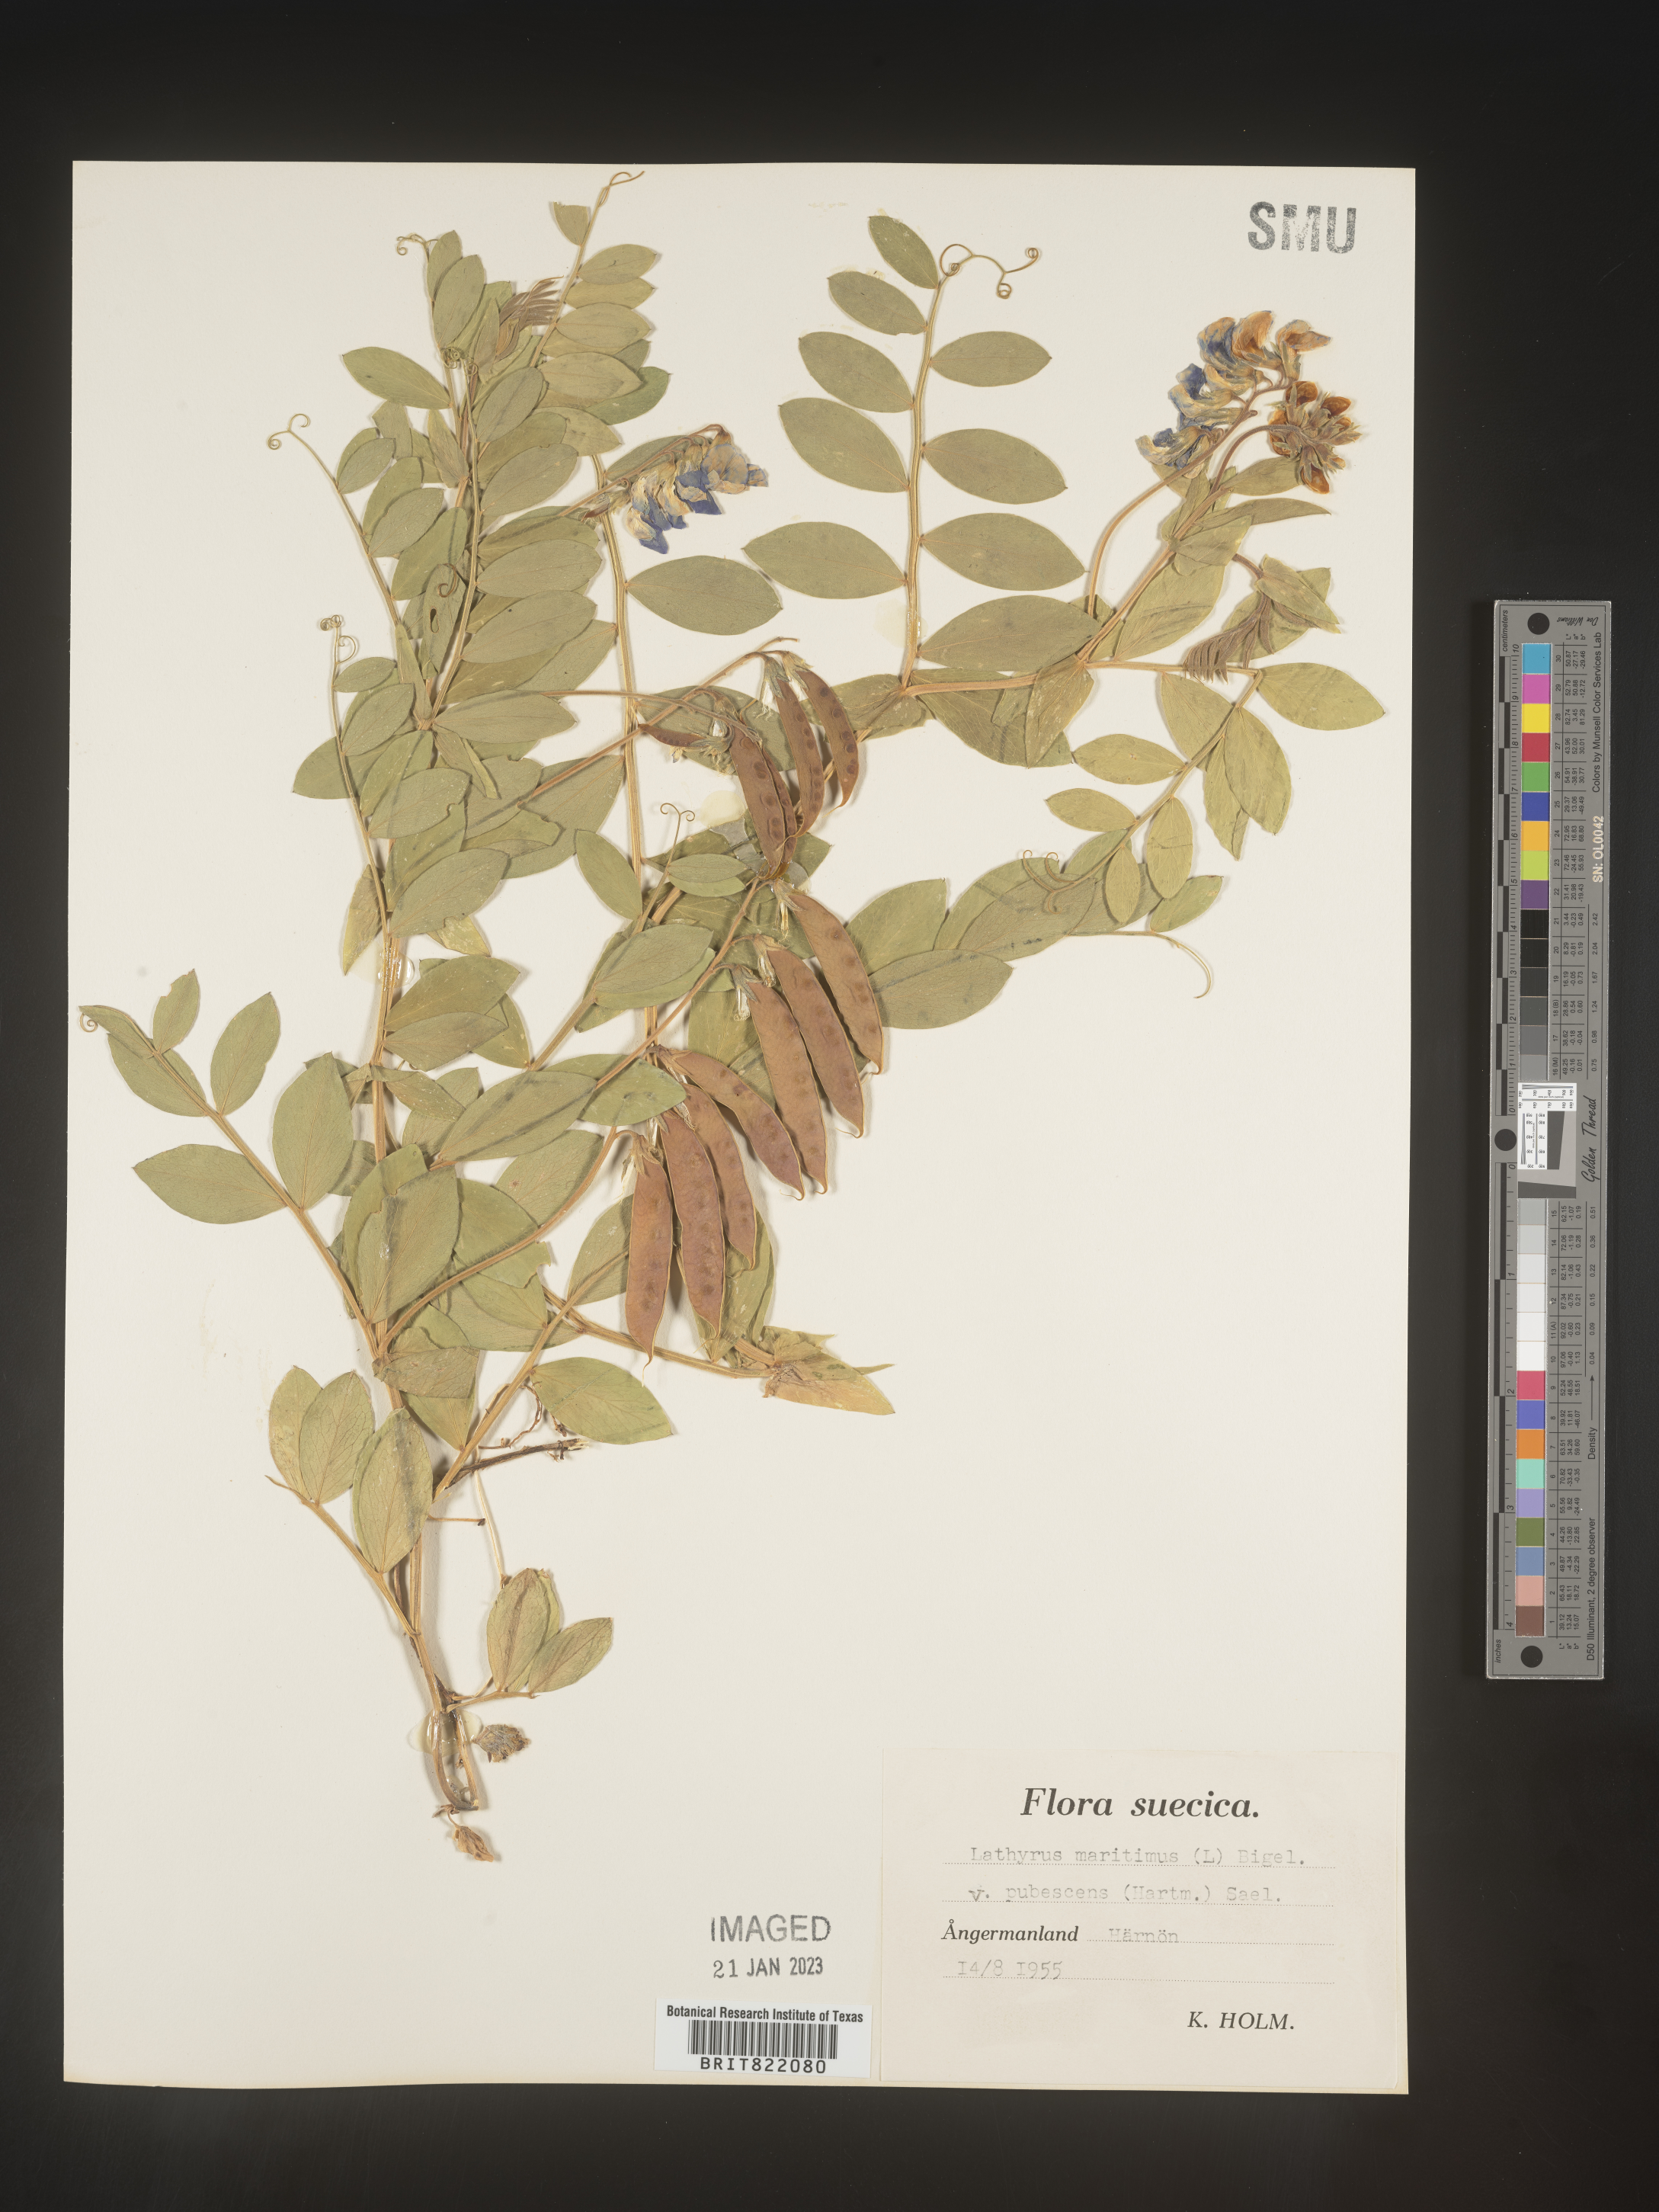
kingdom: Plantae
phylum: Tracheophyta
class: Magnoliopsida
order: Fabales
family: Fabaceae
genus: Lathyrus
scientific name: Lathyrus
